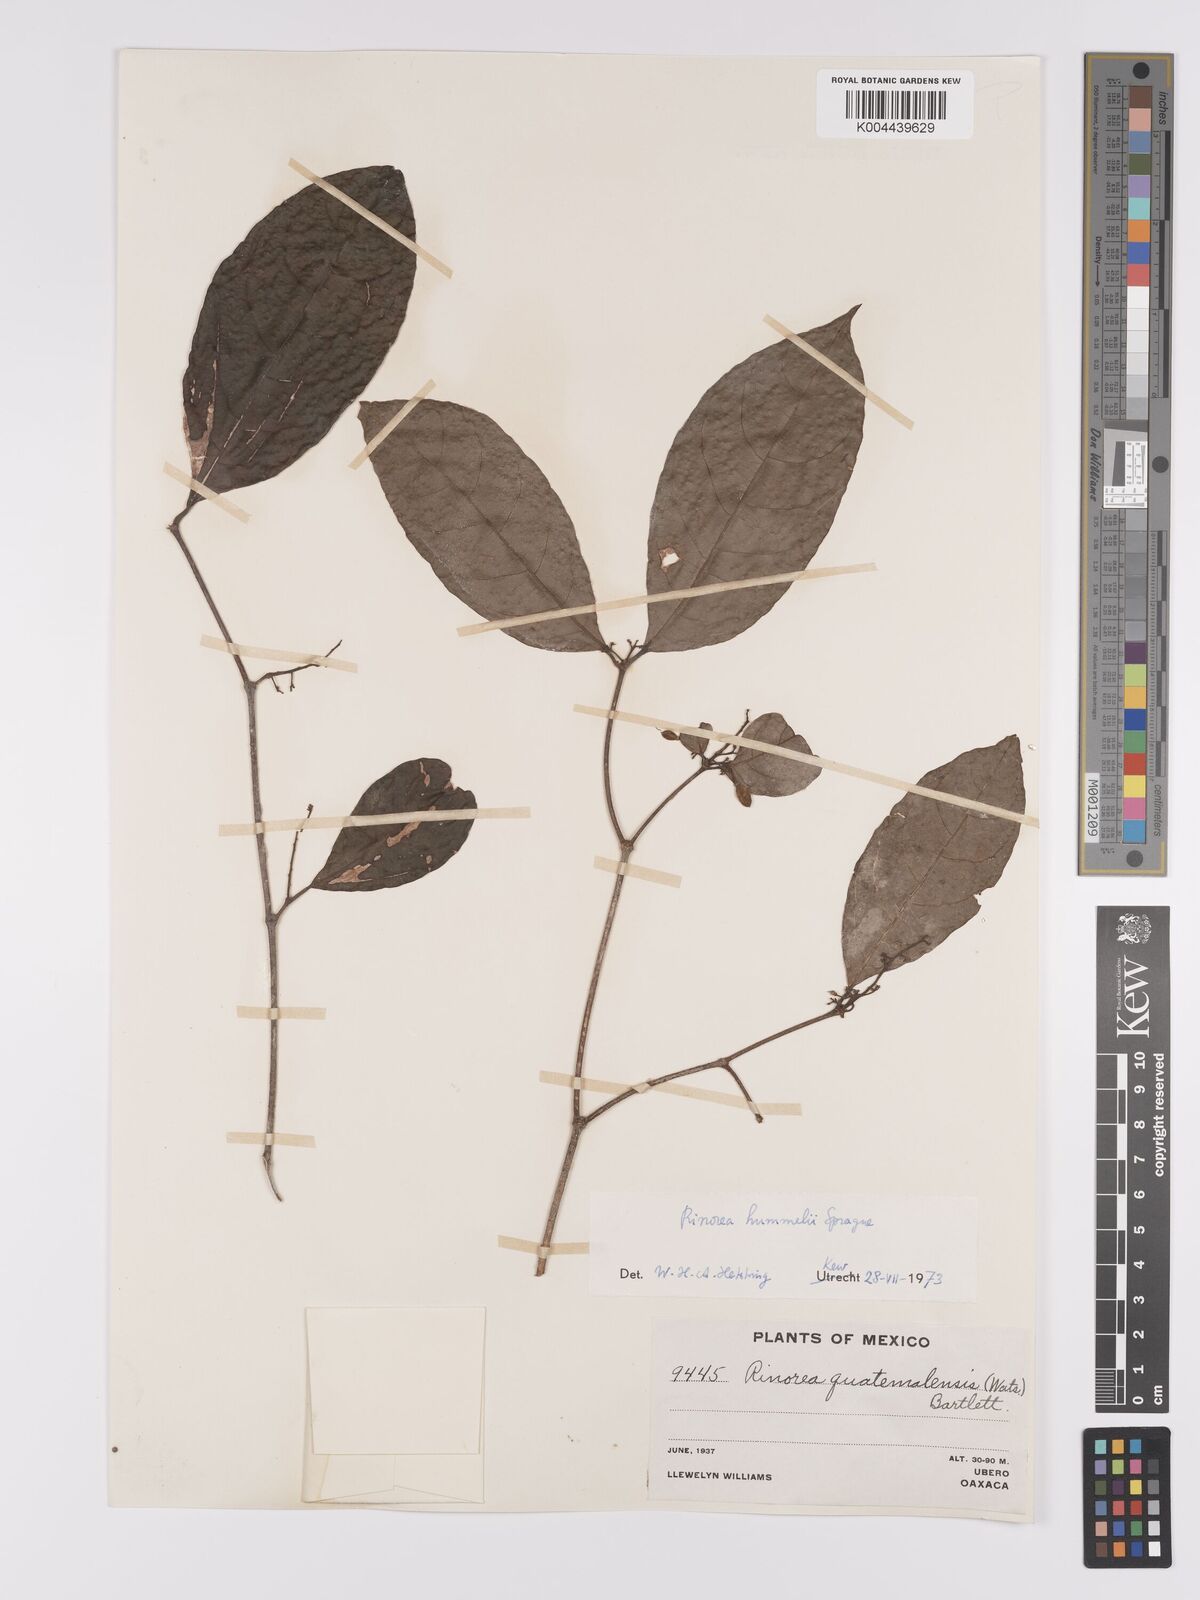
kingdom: Plantae
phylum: Tracheophyta
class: Magnoliopsida
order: Malpighiales
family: Violaceae
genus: Rinorea
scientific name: Rinorea hummelii
